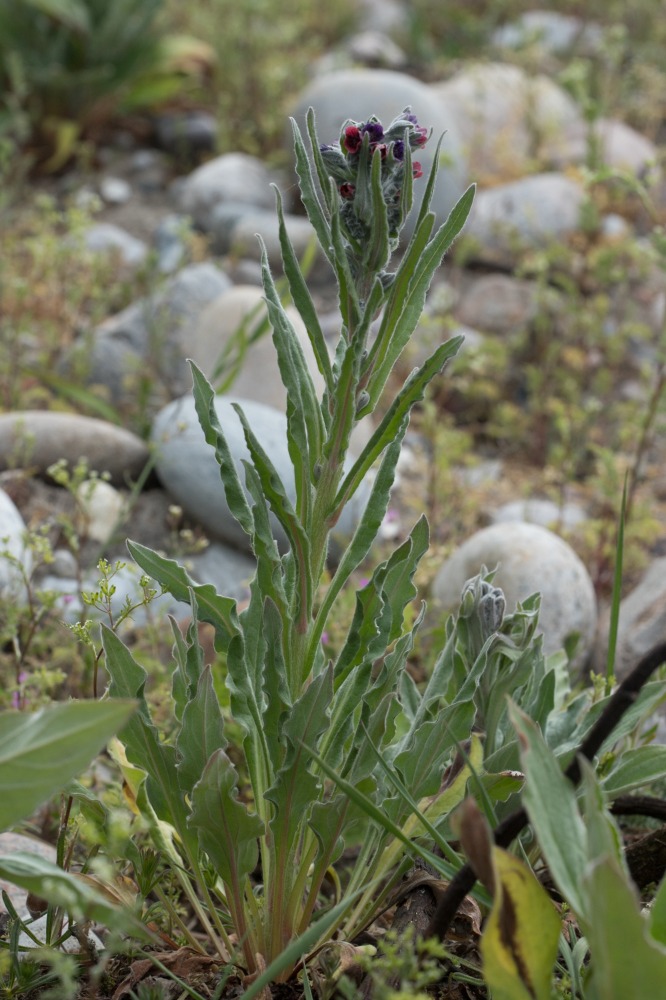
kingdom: Plantae
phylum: Tracheophyta
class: Magnoliopsida
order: Boraginales
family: Boraginaceae
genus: Cynoglossum
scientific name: Cynoglossum officinale
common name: Hundetunge
